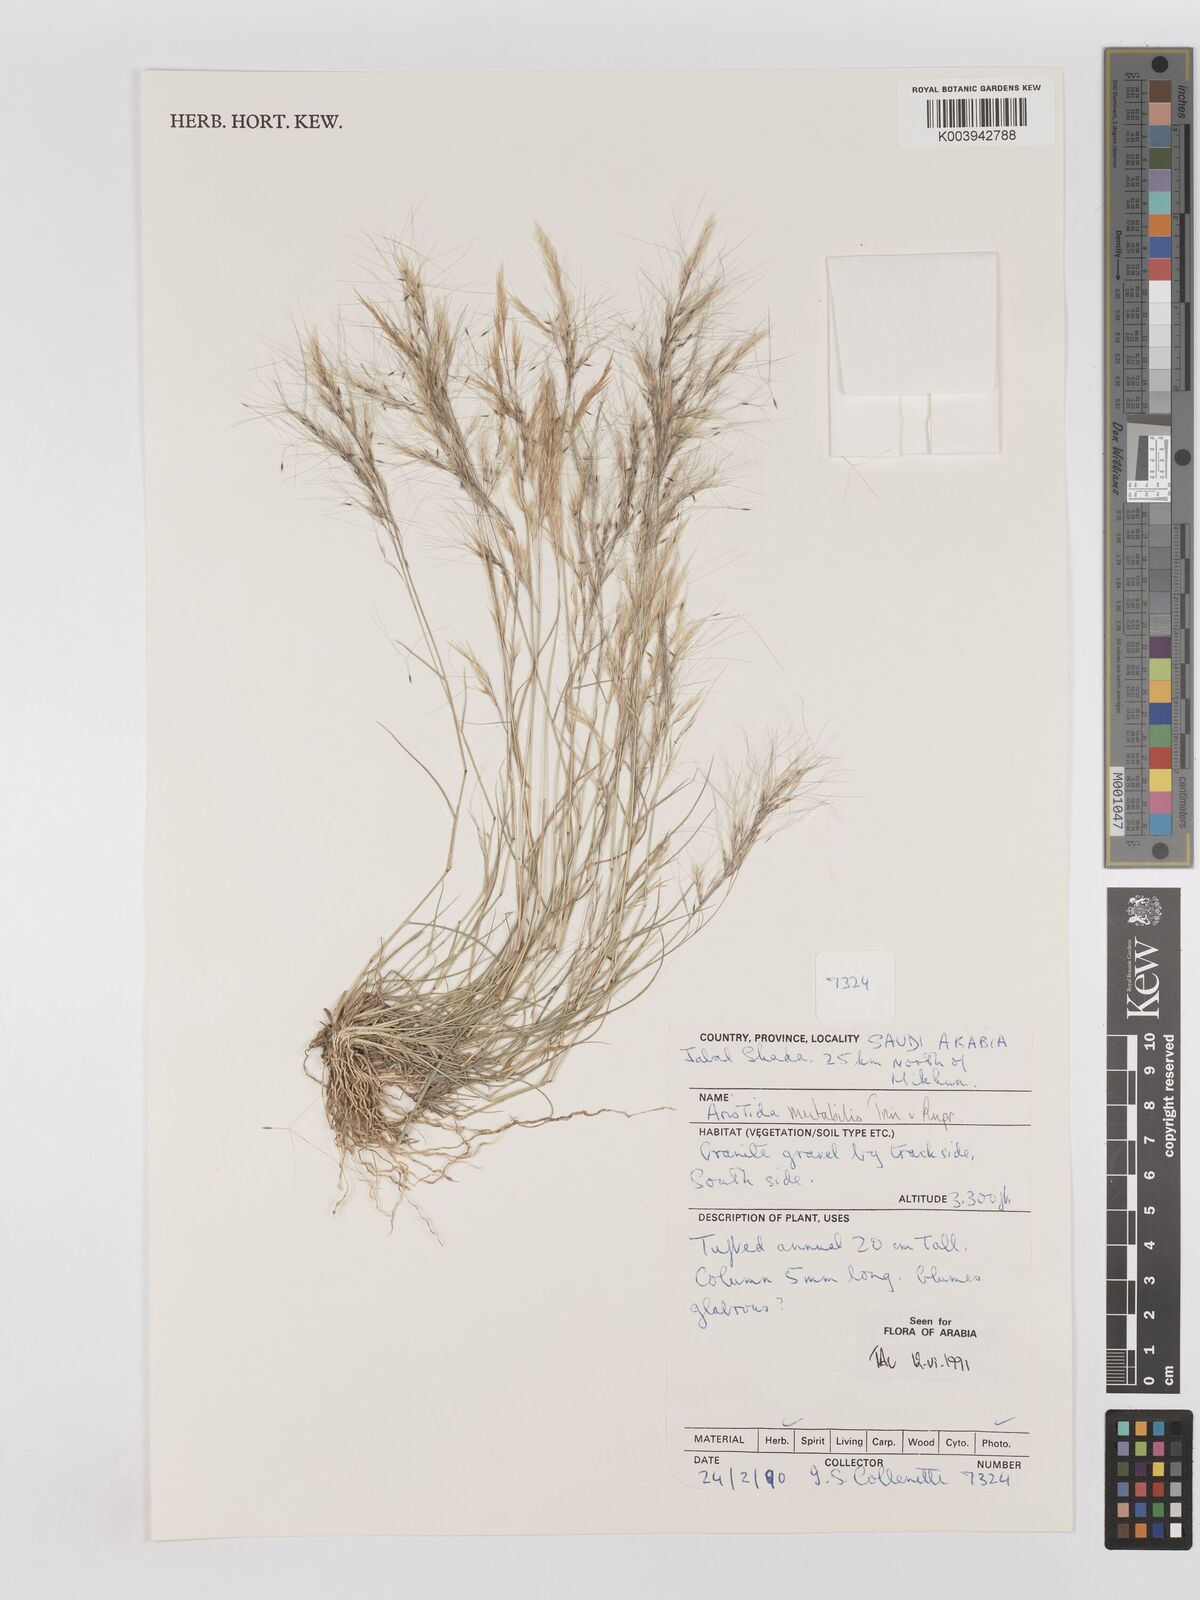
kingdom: Plantae
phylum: Tracheophyta
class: Liliopsida
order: Poales
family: Poaceae
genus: Aristida
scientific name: Aristida mutabilis
